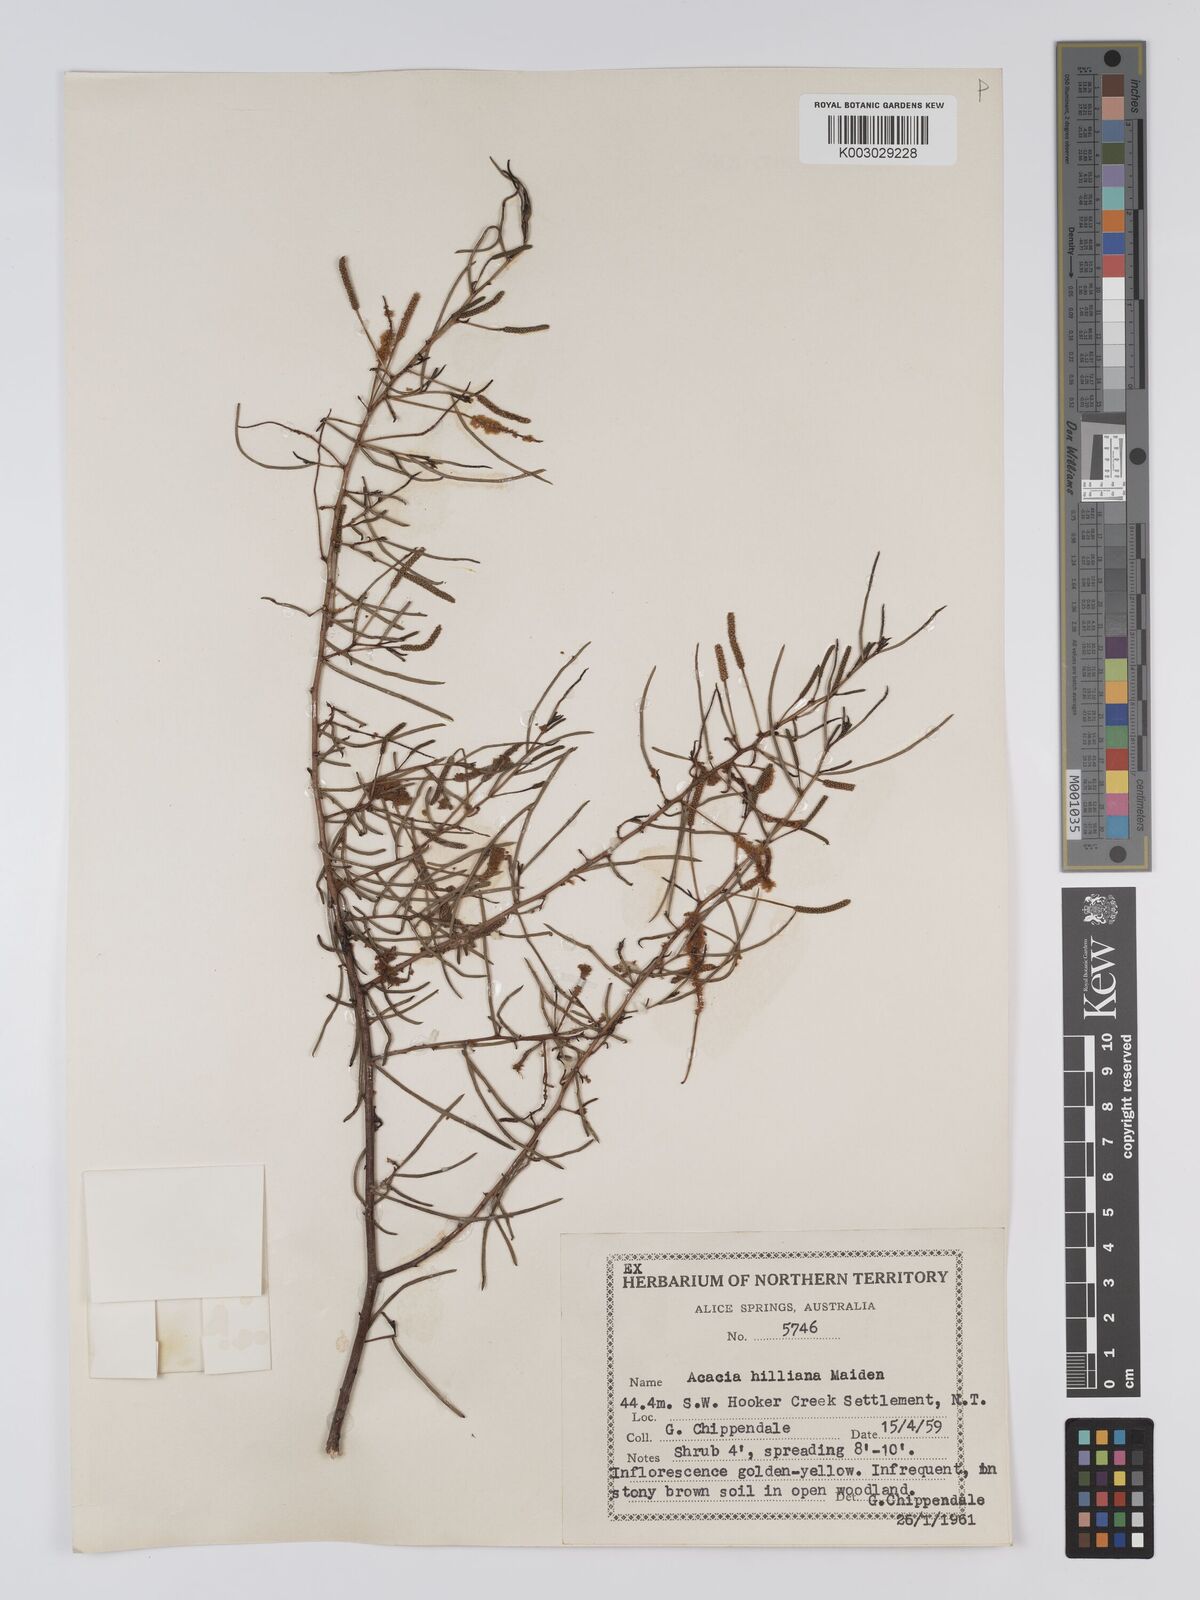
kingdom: Plantae
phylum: Tracheophyta
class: Magnoliopsida
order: Fabales
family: Fabaceae
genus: Acacia
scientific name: Acacia hilliana
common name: Hill's tabletop wattle
